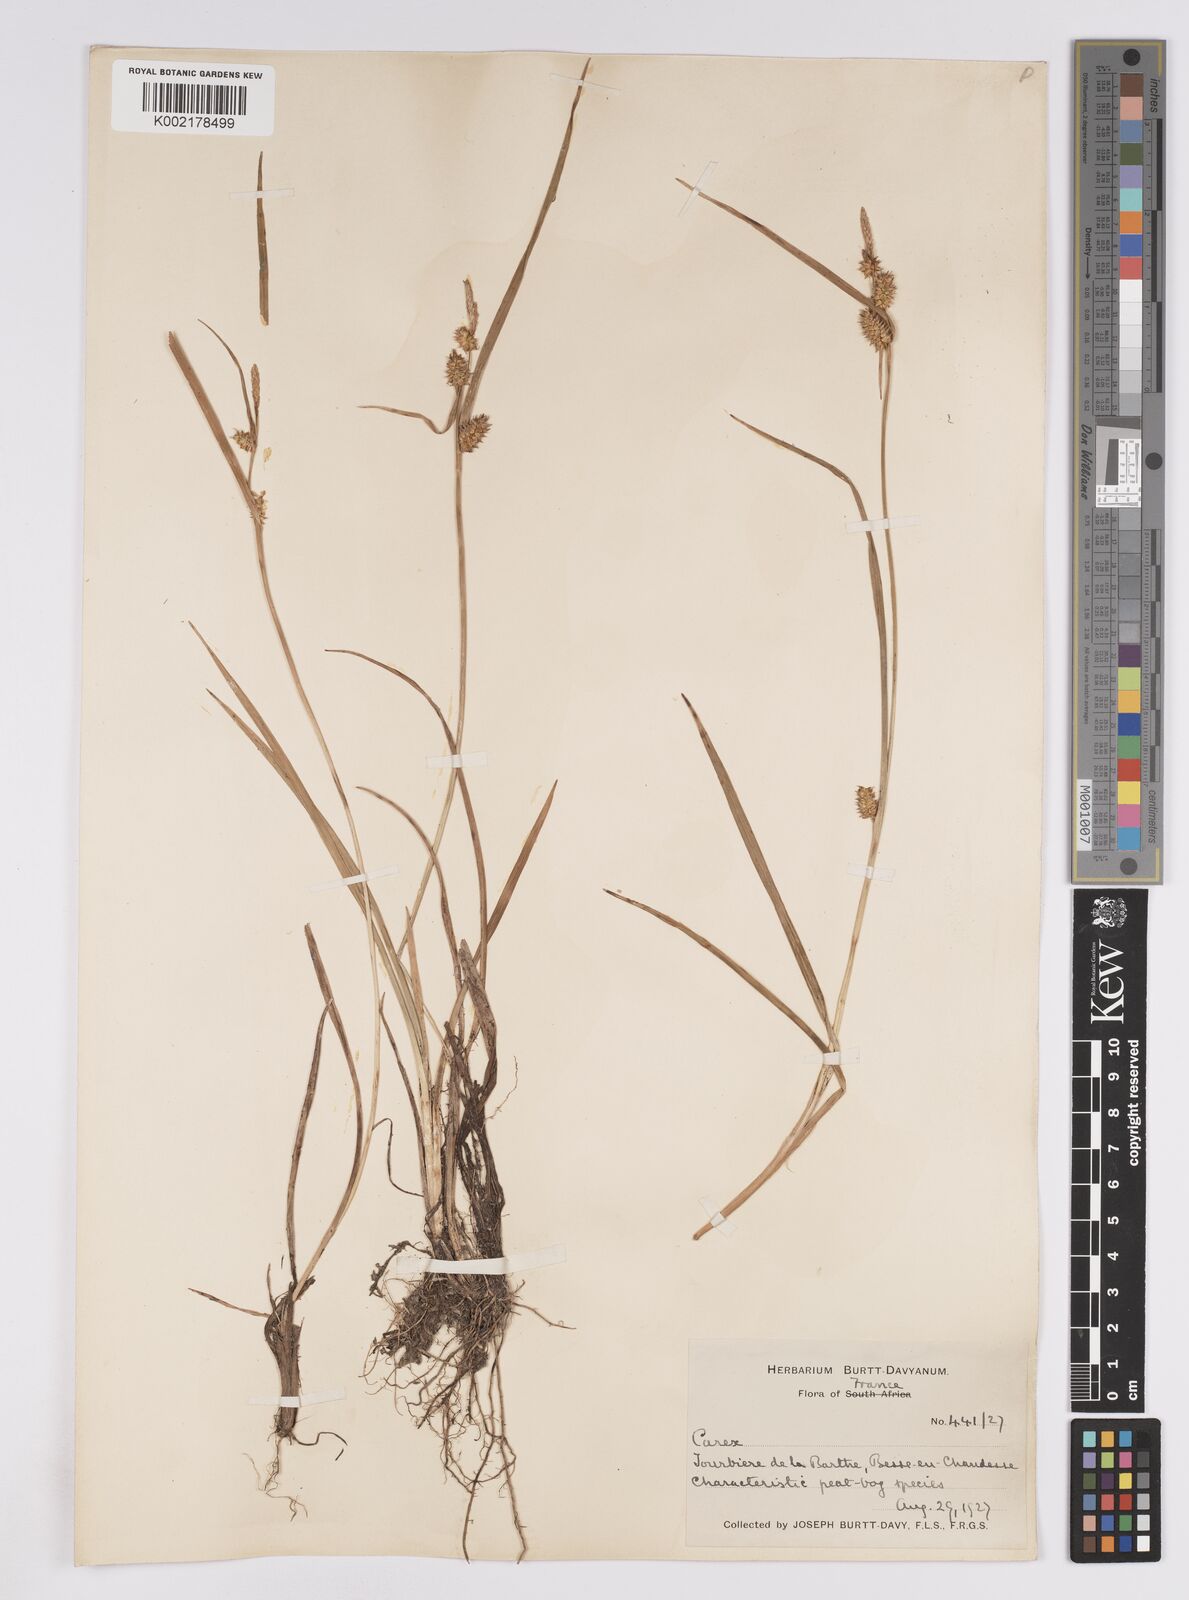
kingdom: Plantae
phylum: Tracheophyta
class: Liliopsida
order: Poales
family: Cyperaceae
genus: Carex
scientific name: Carex demissa
